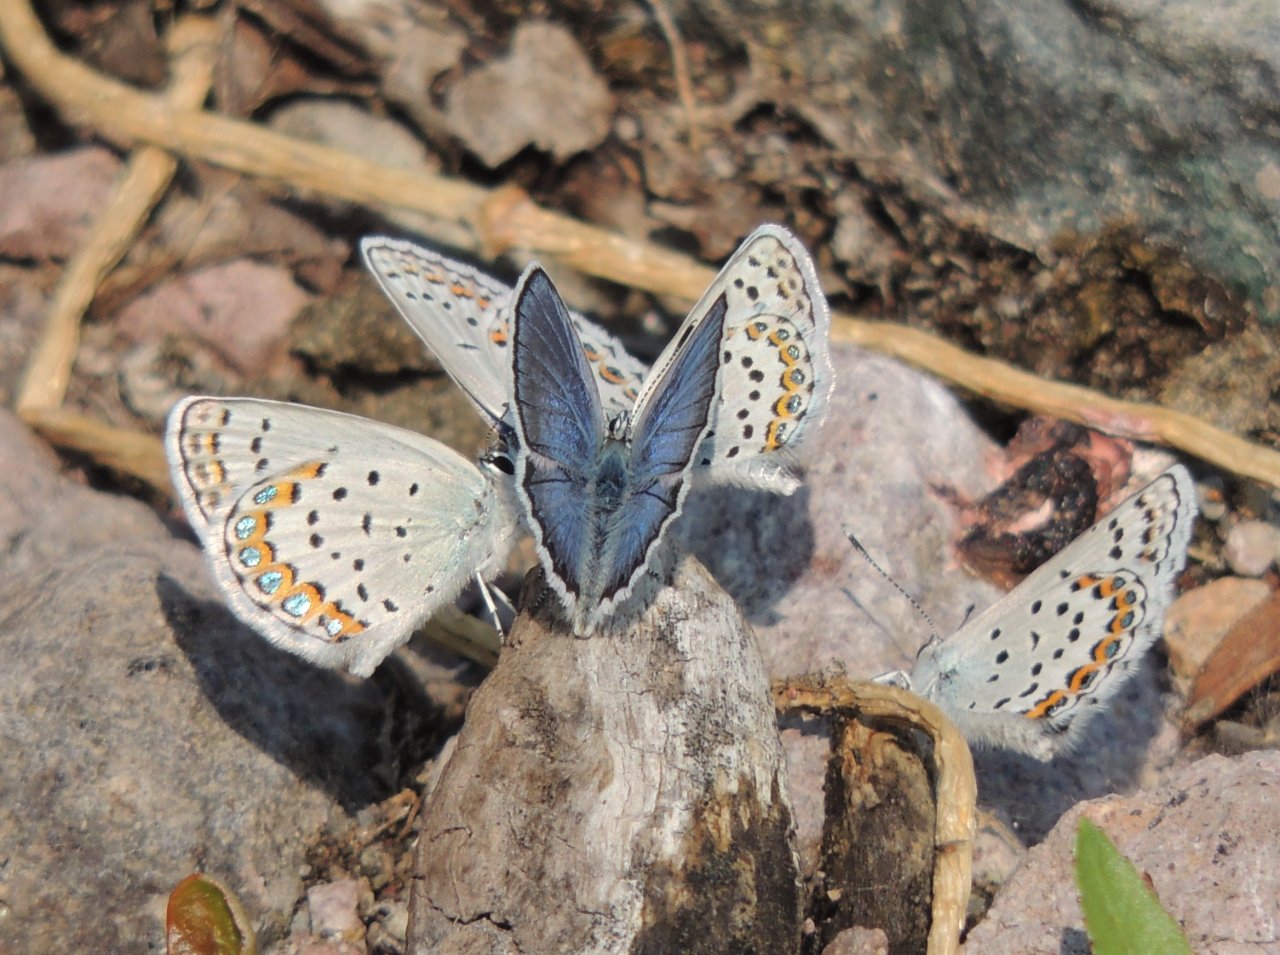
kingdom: Animalia
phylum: Arthropoda
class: Insecta
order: Lepidoptera
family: Lycaenidae
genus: Lycaeides
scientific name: Lycaeides melissa
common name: Melissa Blue
